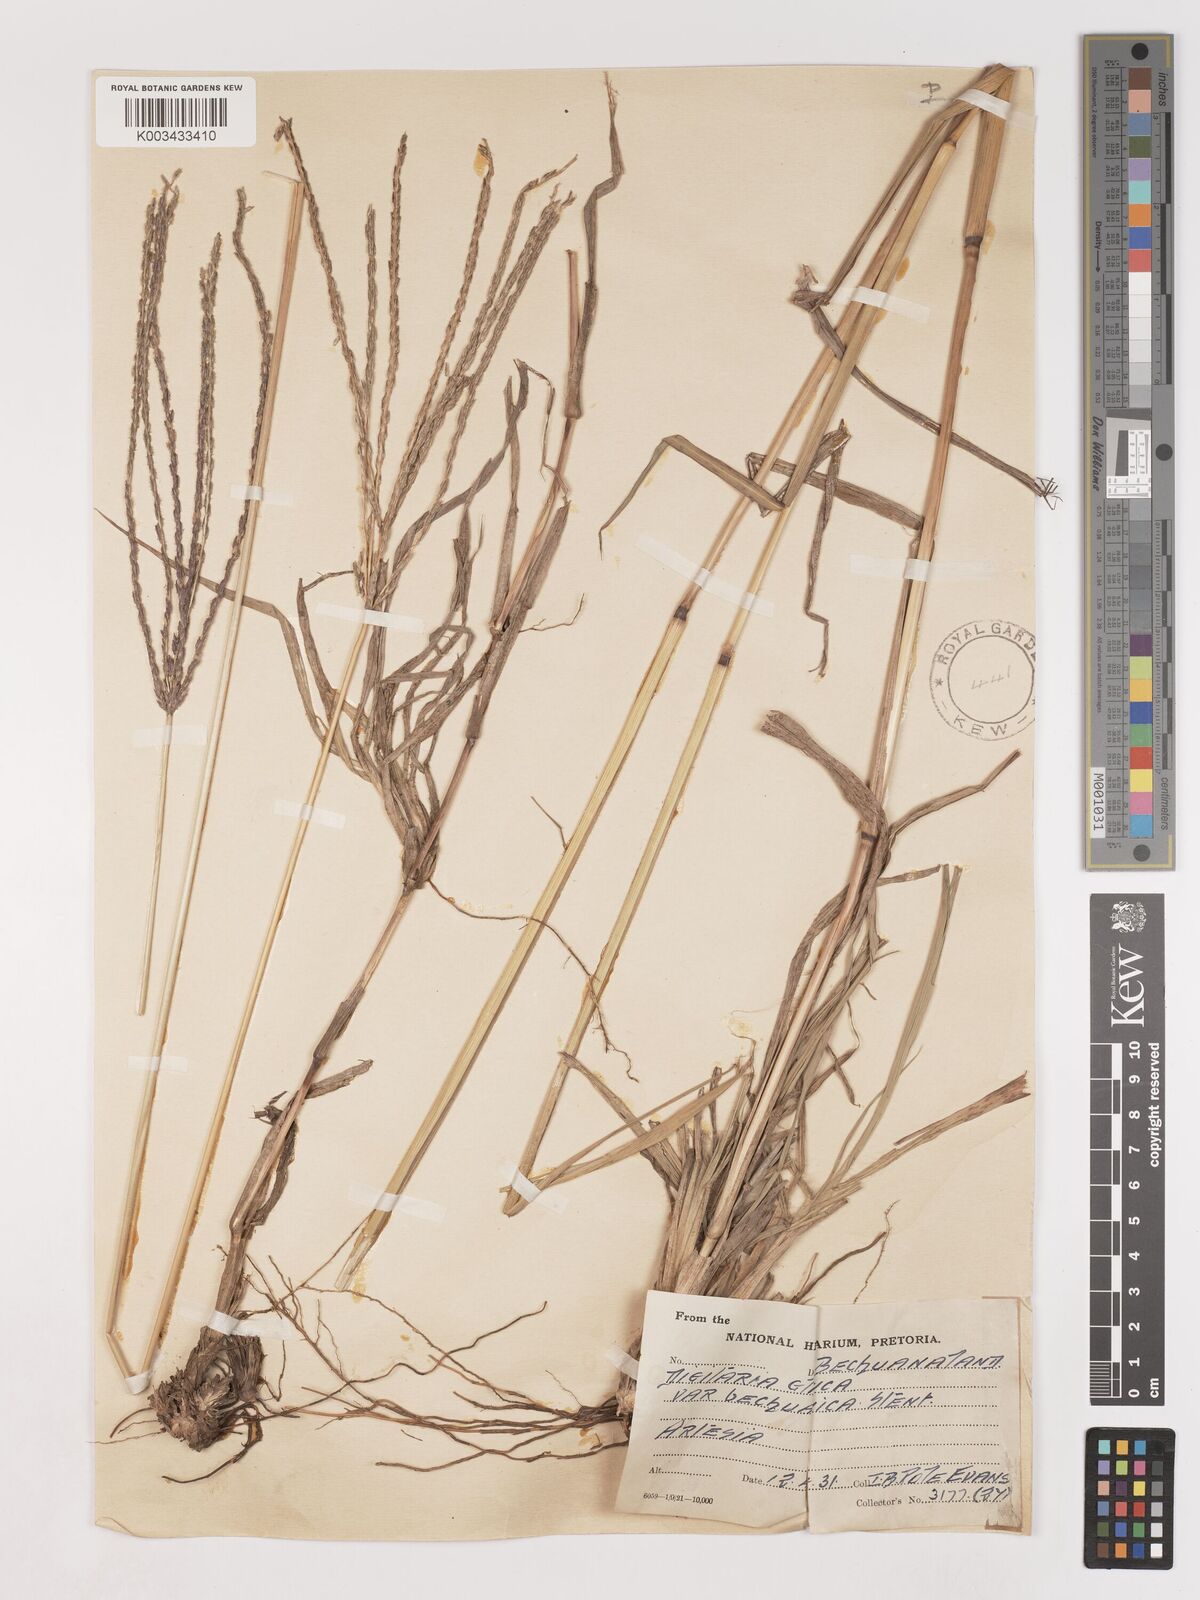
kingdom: Plantae
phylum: Tracheophyta
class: Liliopsida
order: Poales
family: Poaceae
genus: Digitaria
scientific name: Digitaria eriantha
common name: Digitgrass
